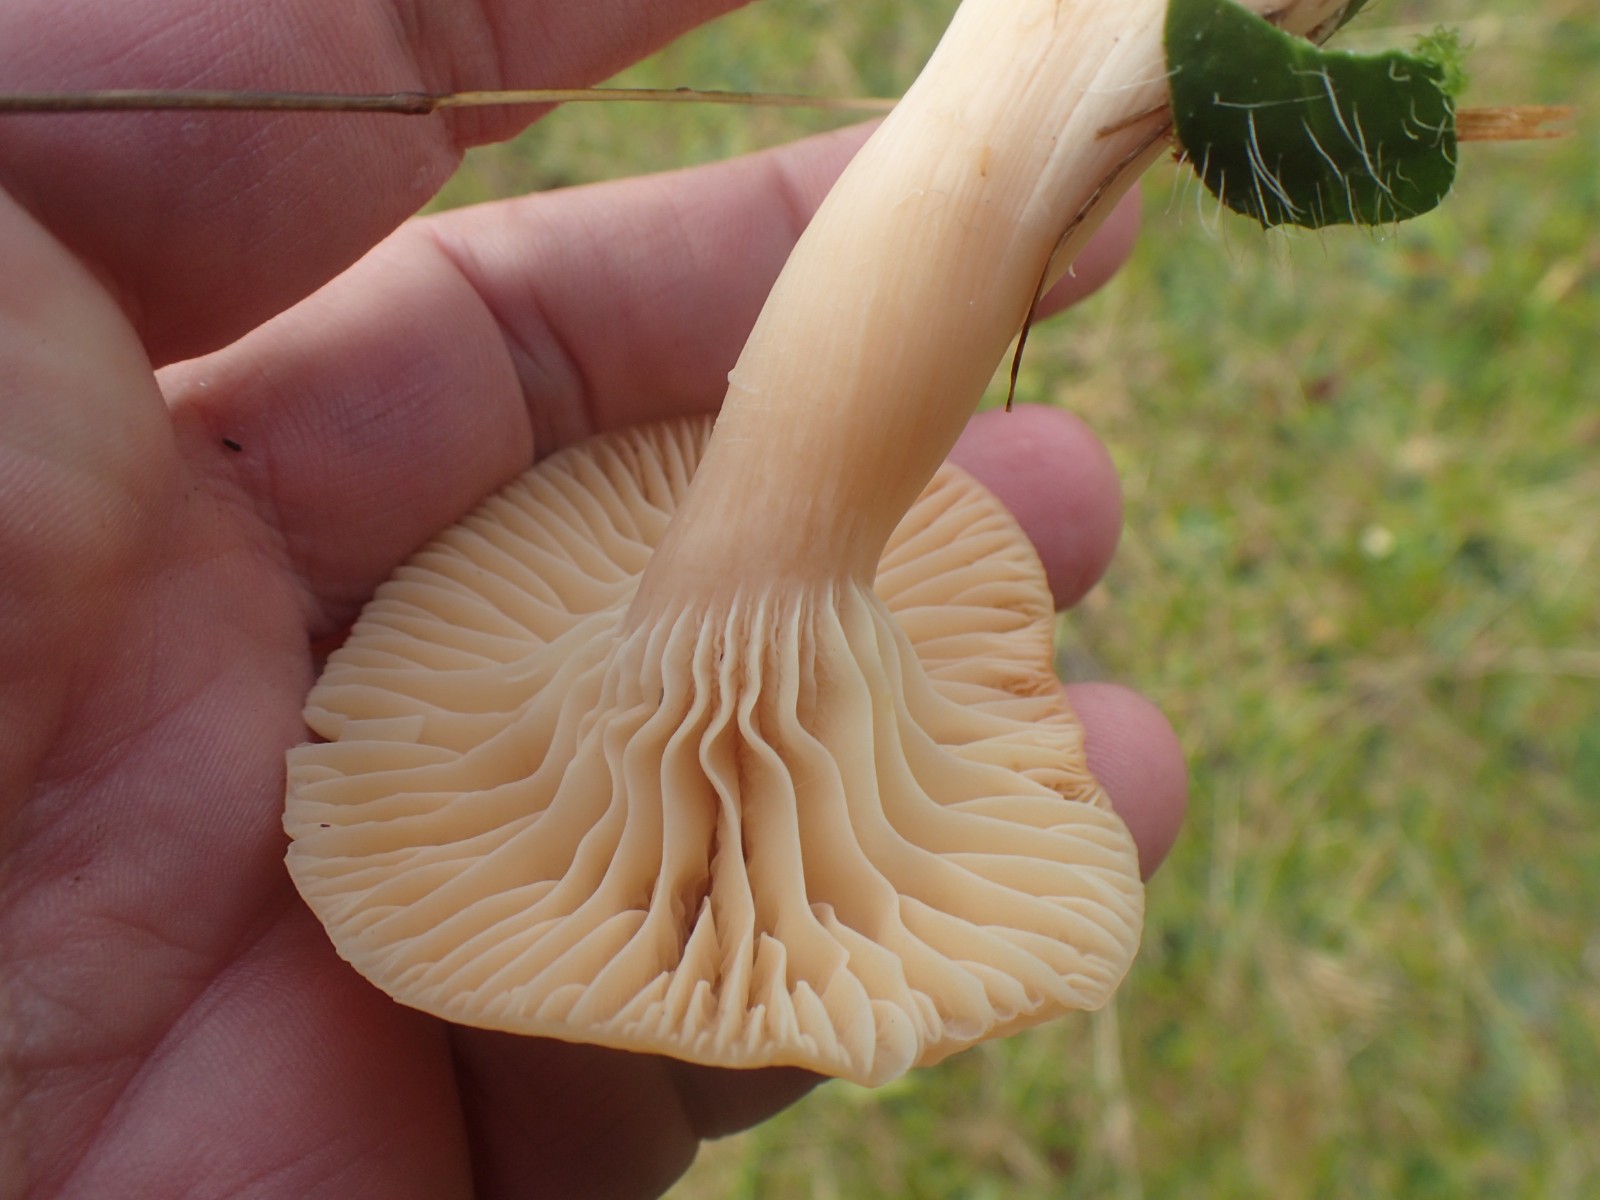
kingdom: Fungi
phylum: Basidiomycota
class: Agaricomycetes
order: Agaricales
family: Hygrophoraceae
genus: Cuphophyllus
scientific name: Cuphophyllus pratensis
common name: eng-vokshat
